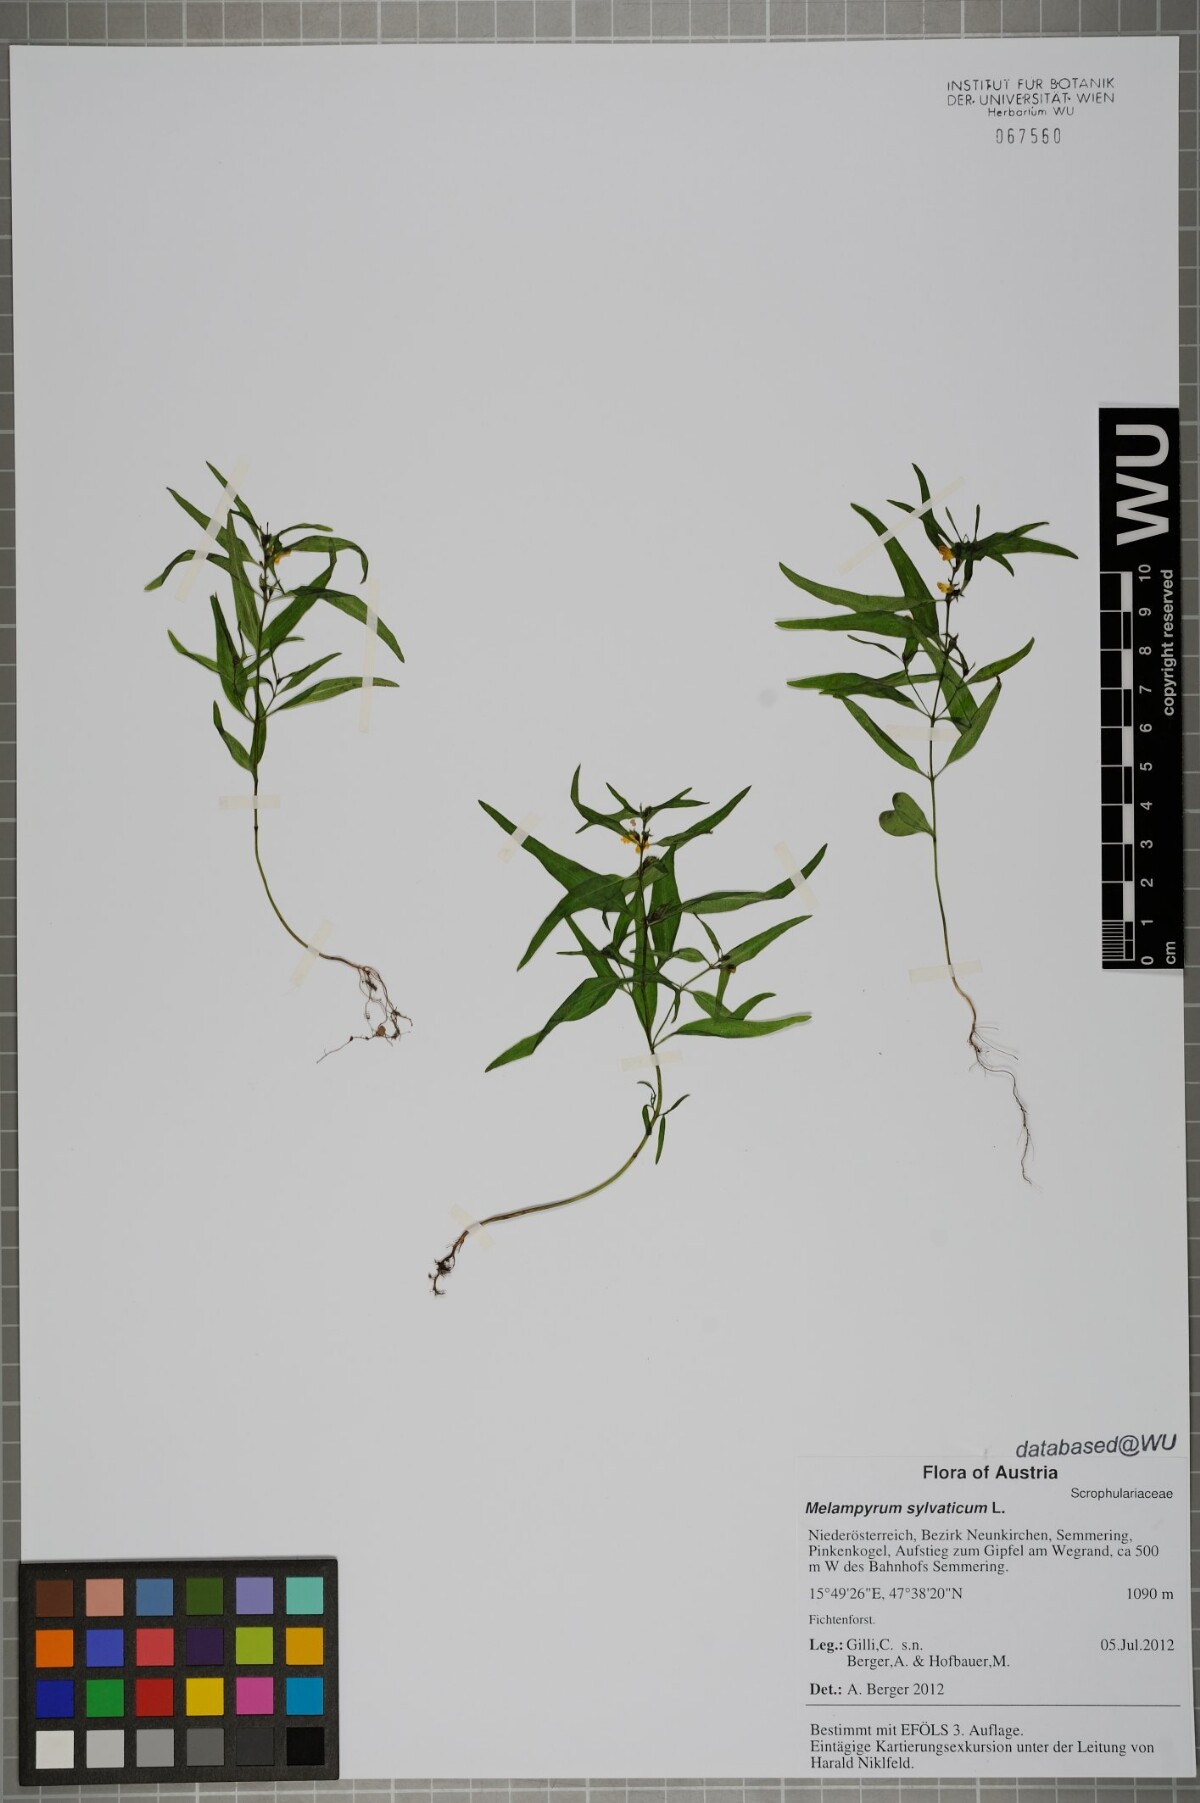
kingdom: Plantae
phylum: Tracheophyta
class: Magnoliopsida
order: Lamiales
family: Orobanchaceae
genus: Melampyrum
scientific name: Melampyrum sylvaticum
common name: Small cow-wheat
